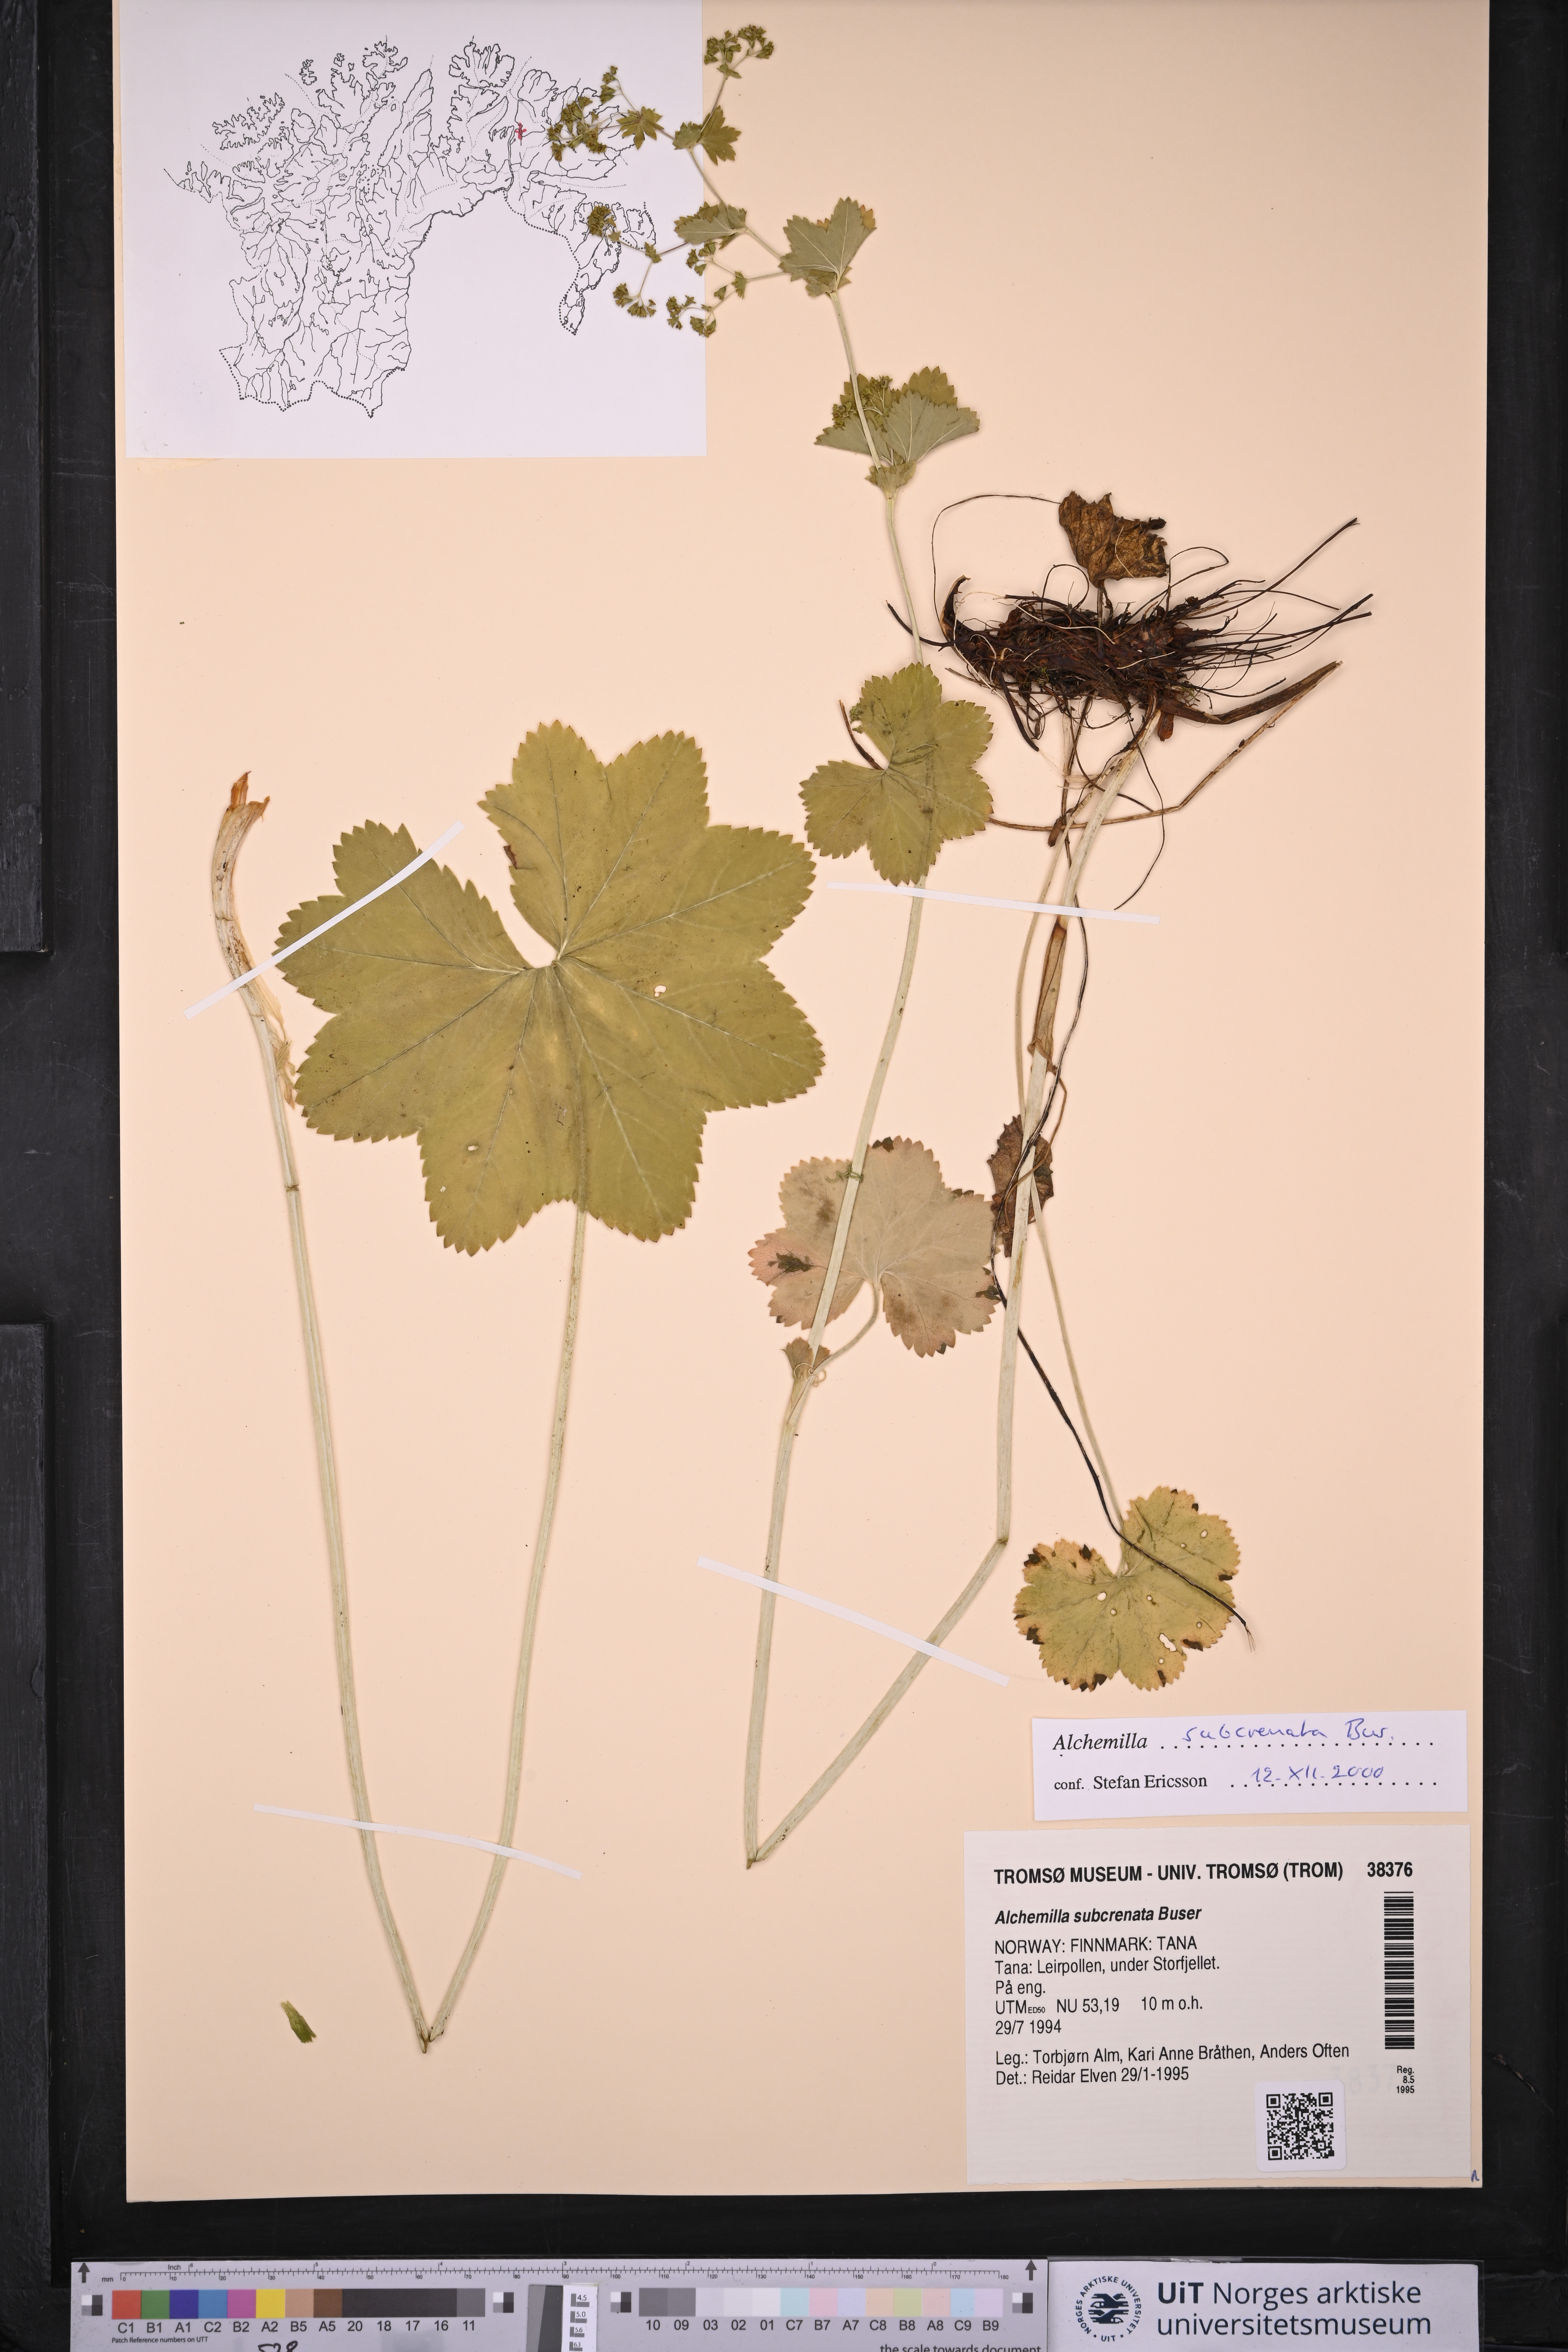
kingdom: Plantae
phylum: Tracheophyta
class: Magnoliopsida
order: Rosales
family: Rosaceae
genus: Alchemilla
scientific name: Alchemilla subcrenata
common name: Broadtooth lady's mantle
